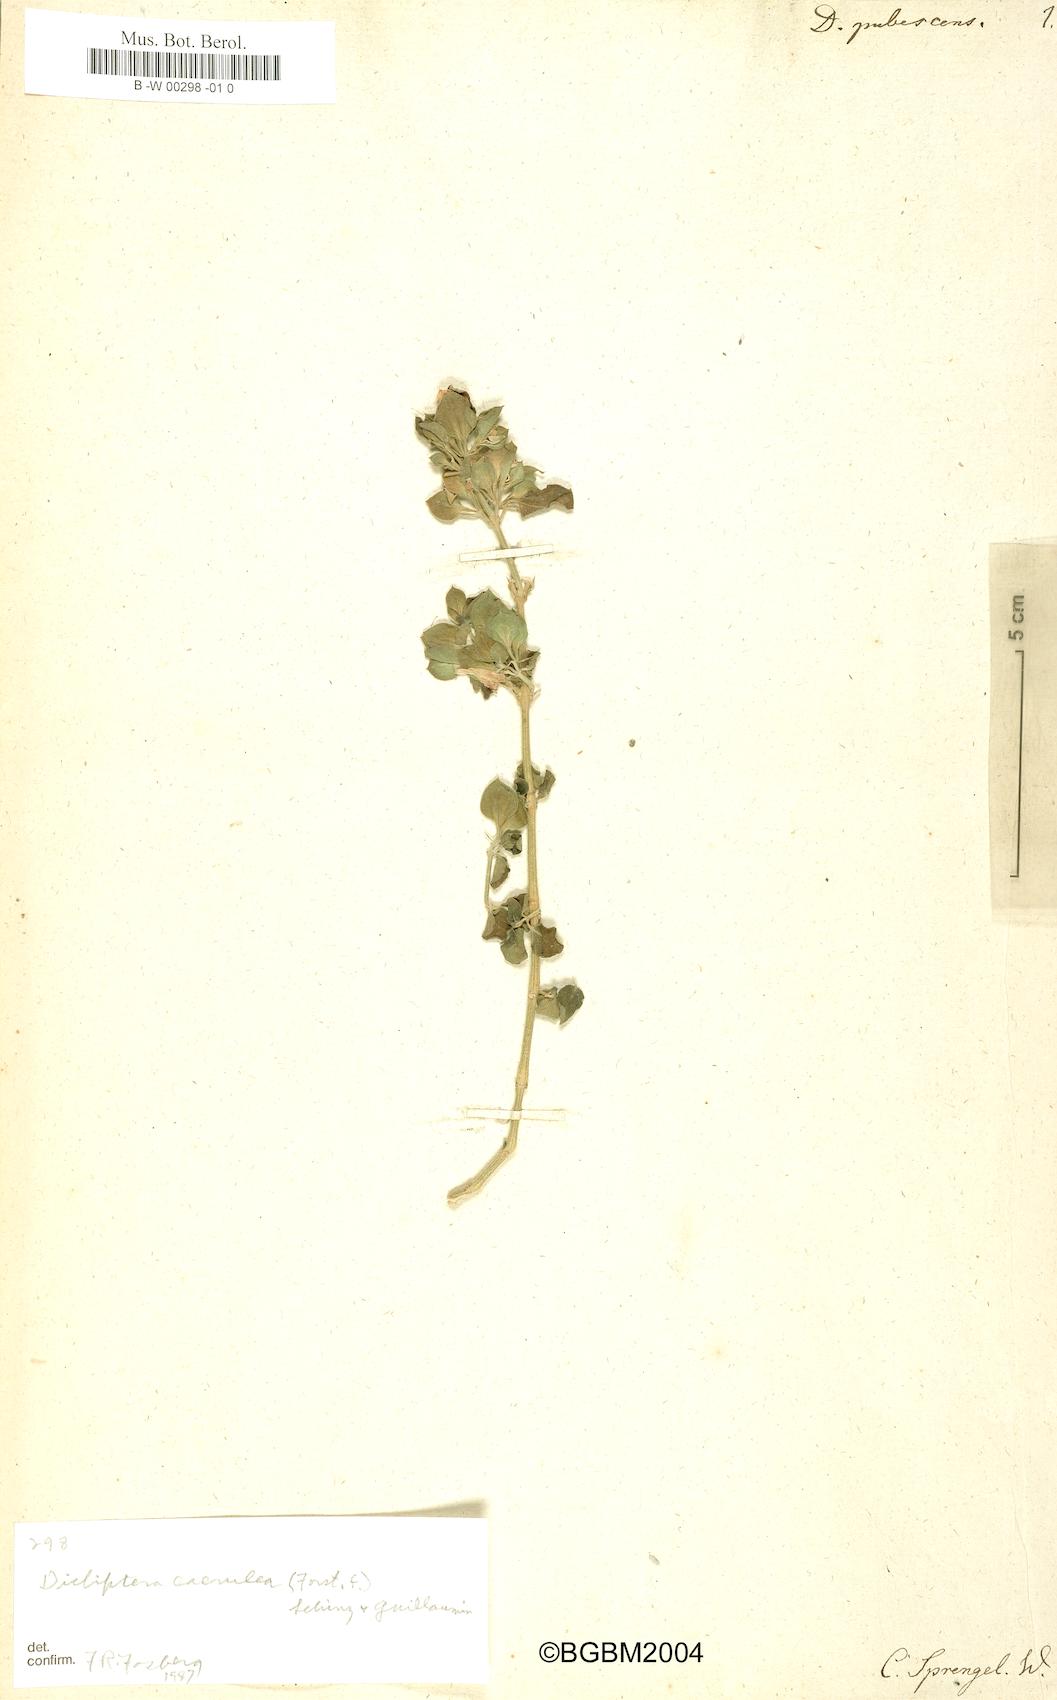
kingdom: Plantae
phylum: Tracheophyta
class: Magnoliopsida
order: Lamiales
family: Acanthaceae
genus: Dicliptera
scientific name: Dicliptera pubescens
